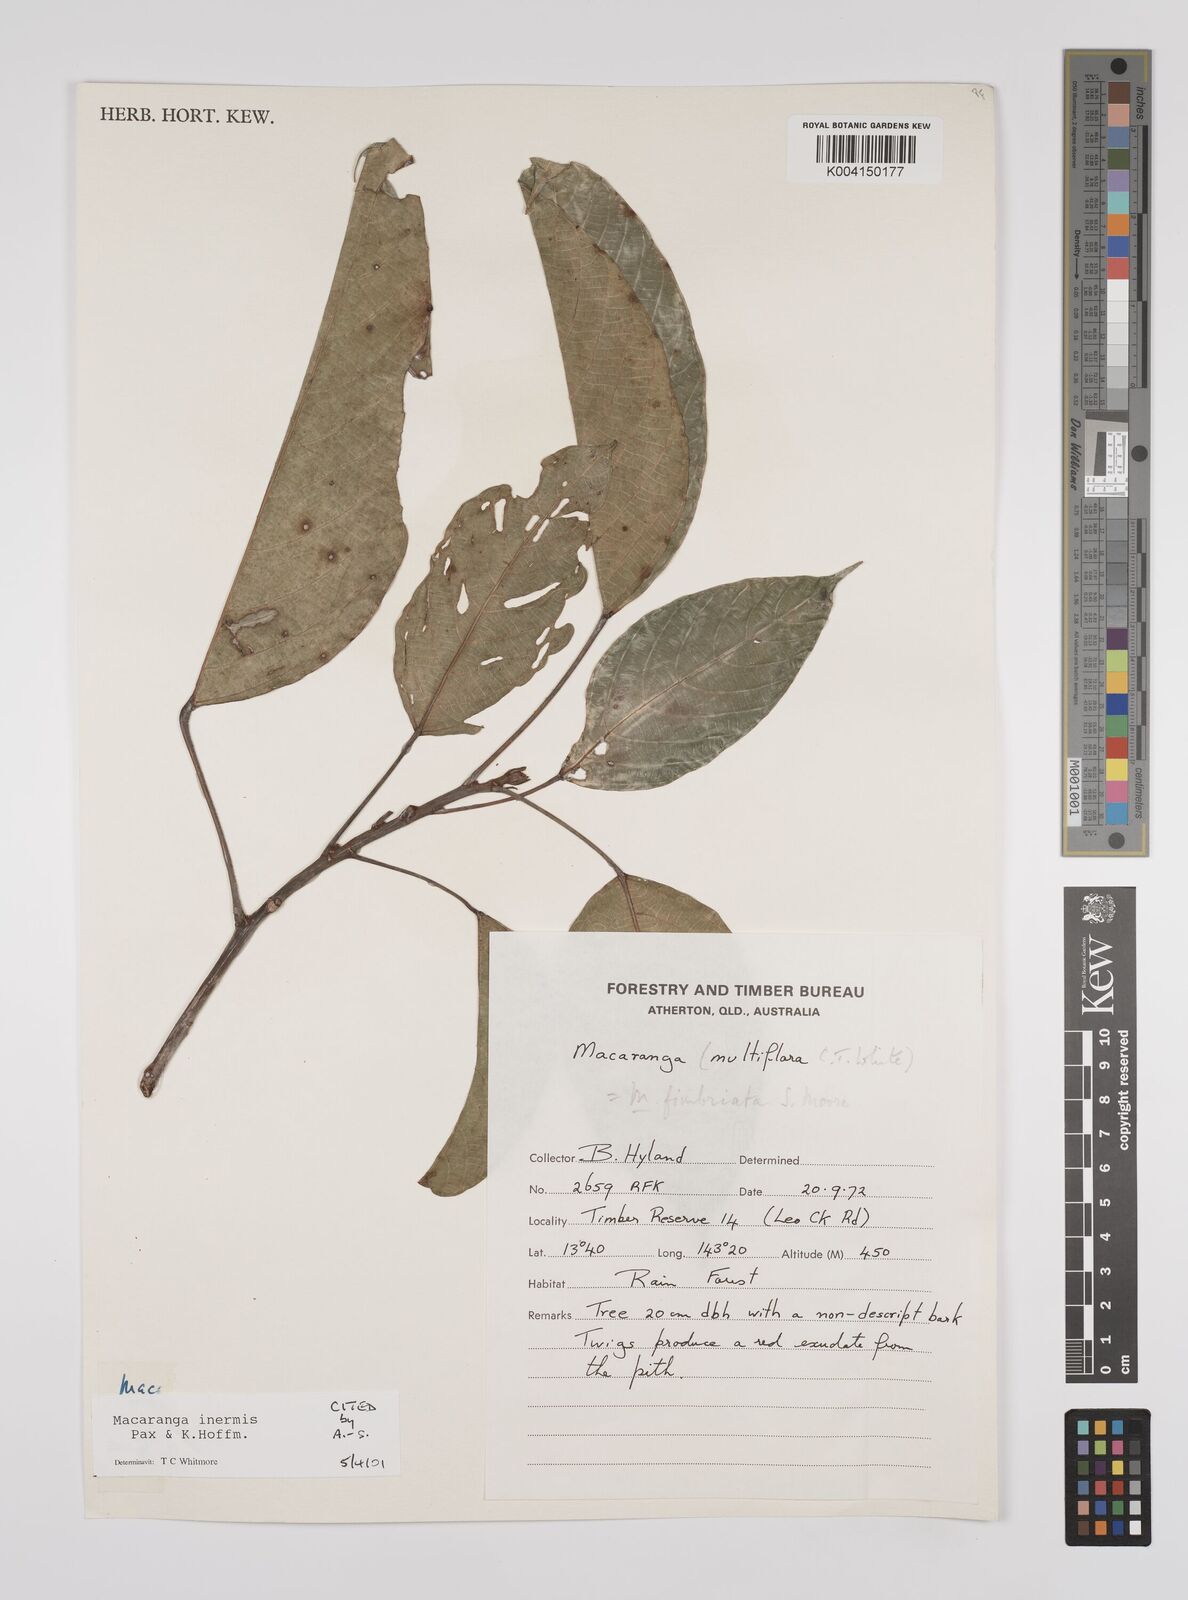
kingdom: Plantae
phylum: Tracheophyta
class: Magnoliopsida
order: Malpighiales
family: Euphorbiaceae
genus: Macaranga
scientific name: Macaranga inermis
